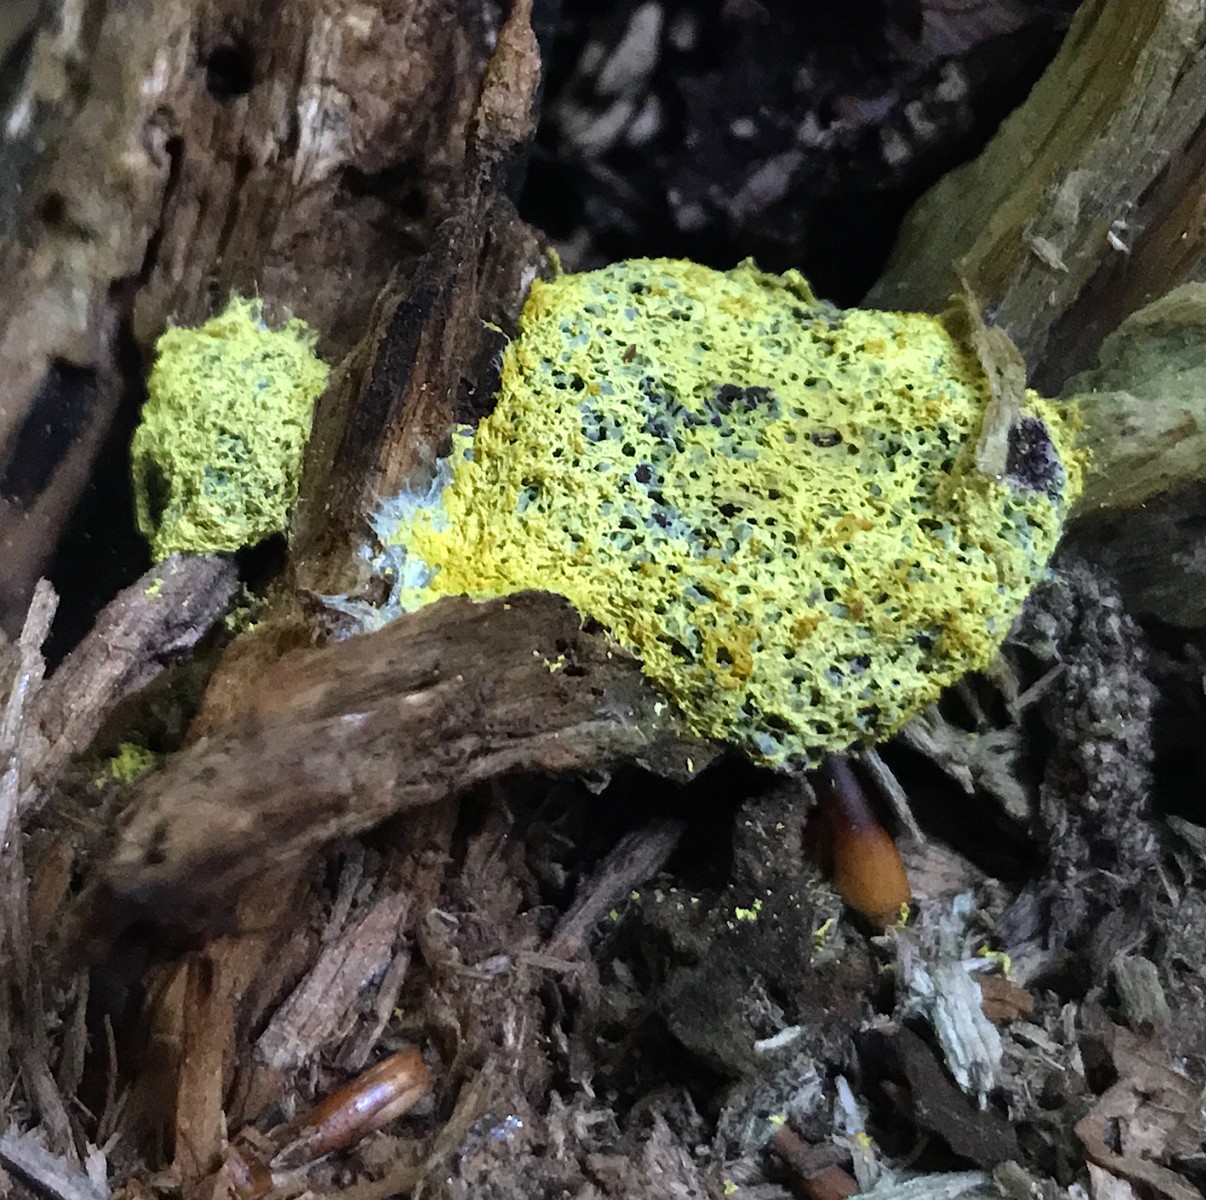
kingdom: Protozoa
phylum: Mycetozoa
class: Myxomycetes
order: Physarales
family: Physaraceae
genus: Fuligo
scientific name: Fuligo septica
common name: gul troldsmør
